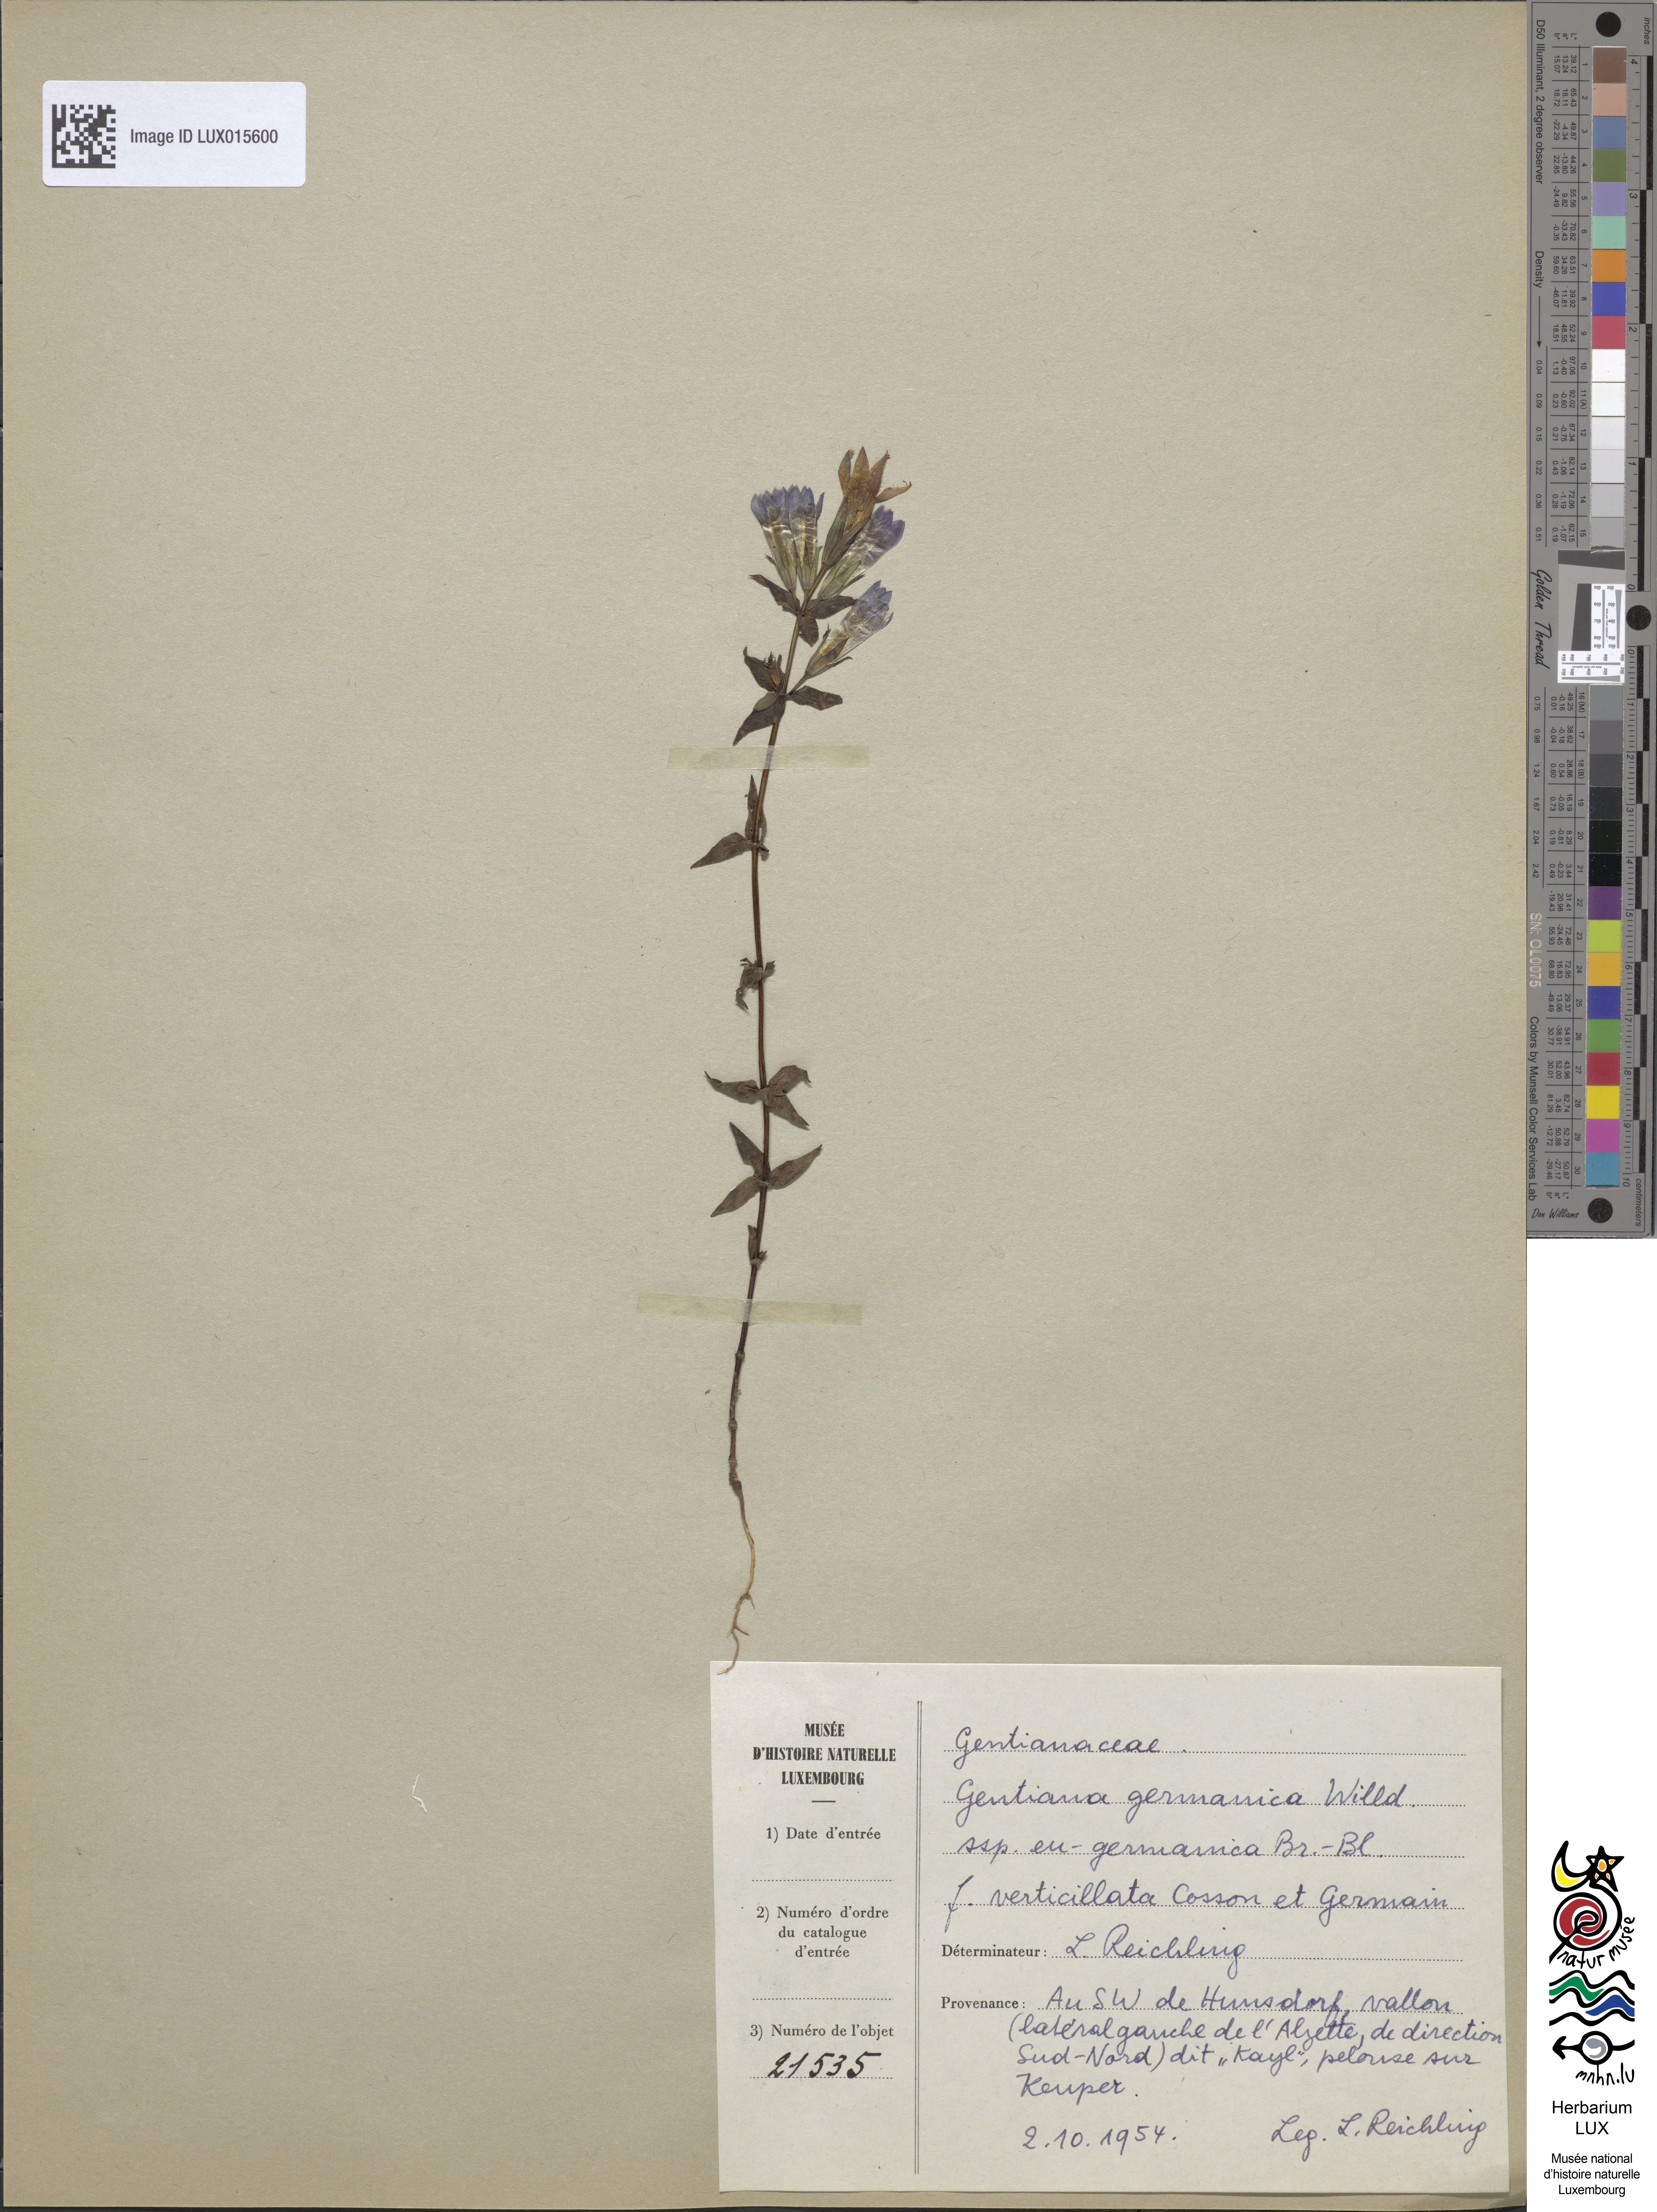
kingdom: Plantae
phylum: Tracheophyta
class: Magnoliopsida
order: Gentianales
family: Gentianaceae
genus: Gentianella
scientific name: Gentianella germanica
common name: Chiltern-gentian
